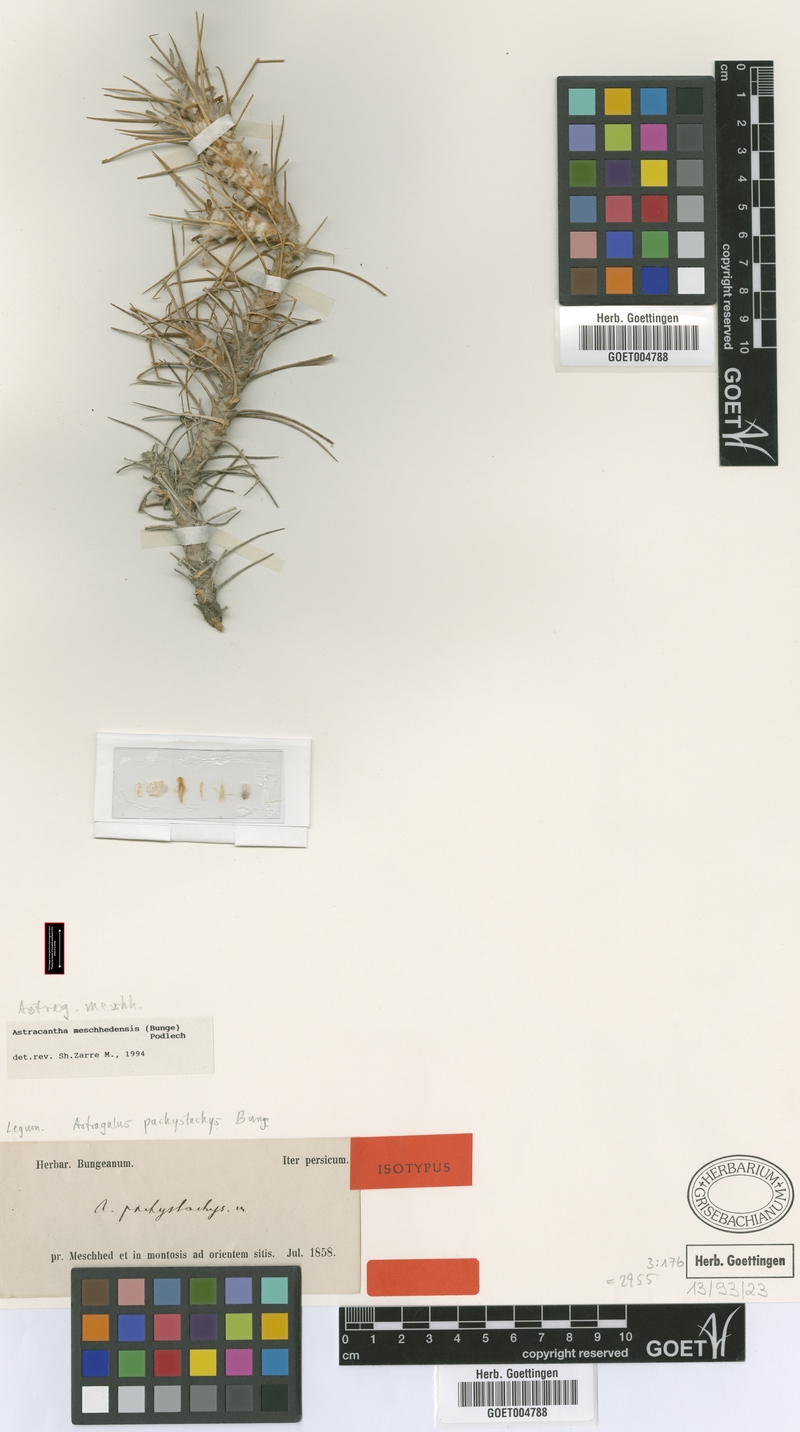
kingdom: Plantae
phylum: Tracheophyta
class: Magnoliopsida
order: Fabales
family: Fabaceae
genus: Astragalus
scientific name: Astragalus verus
